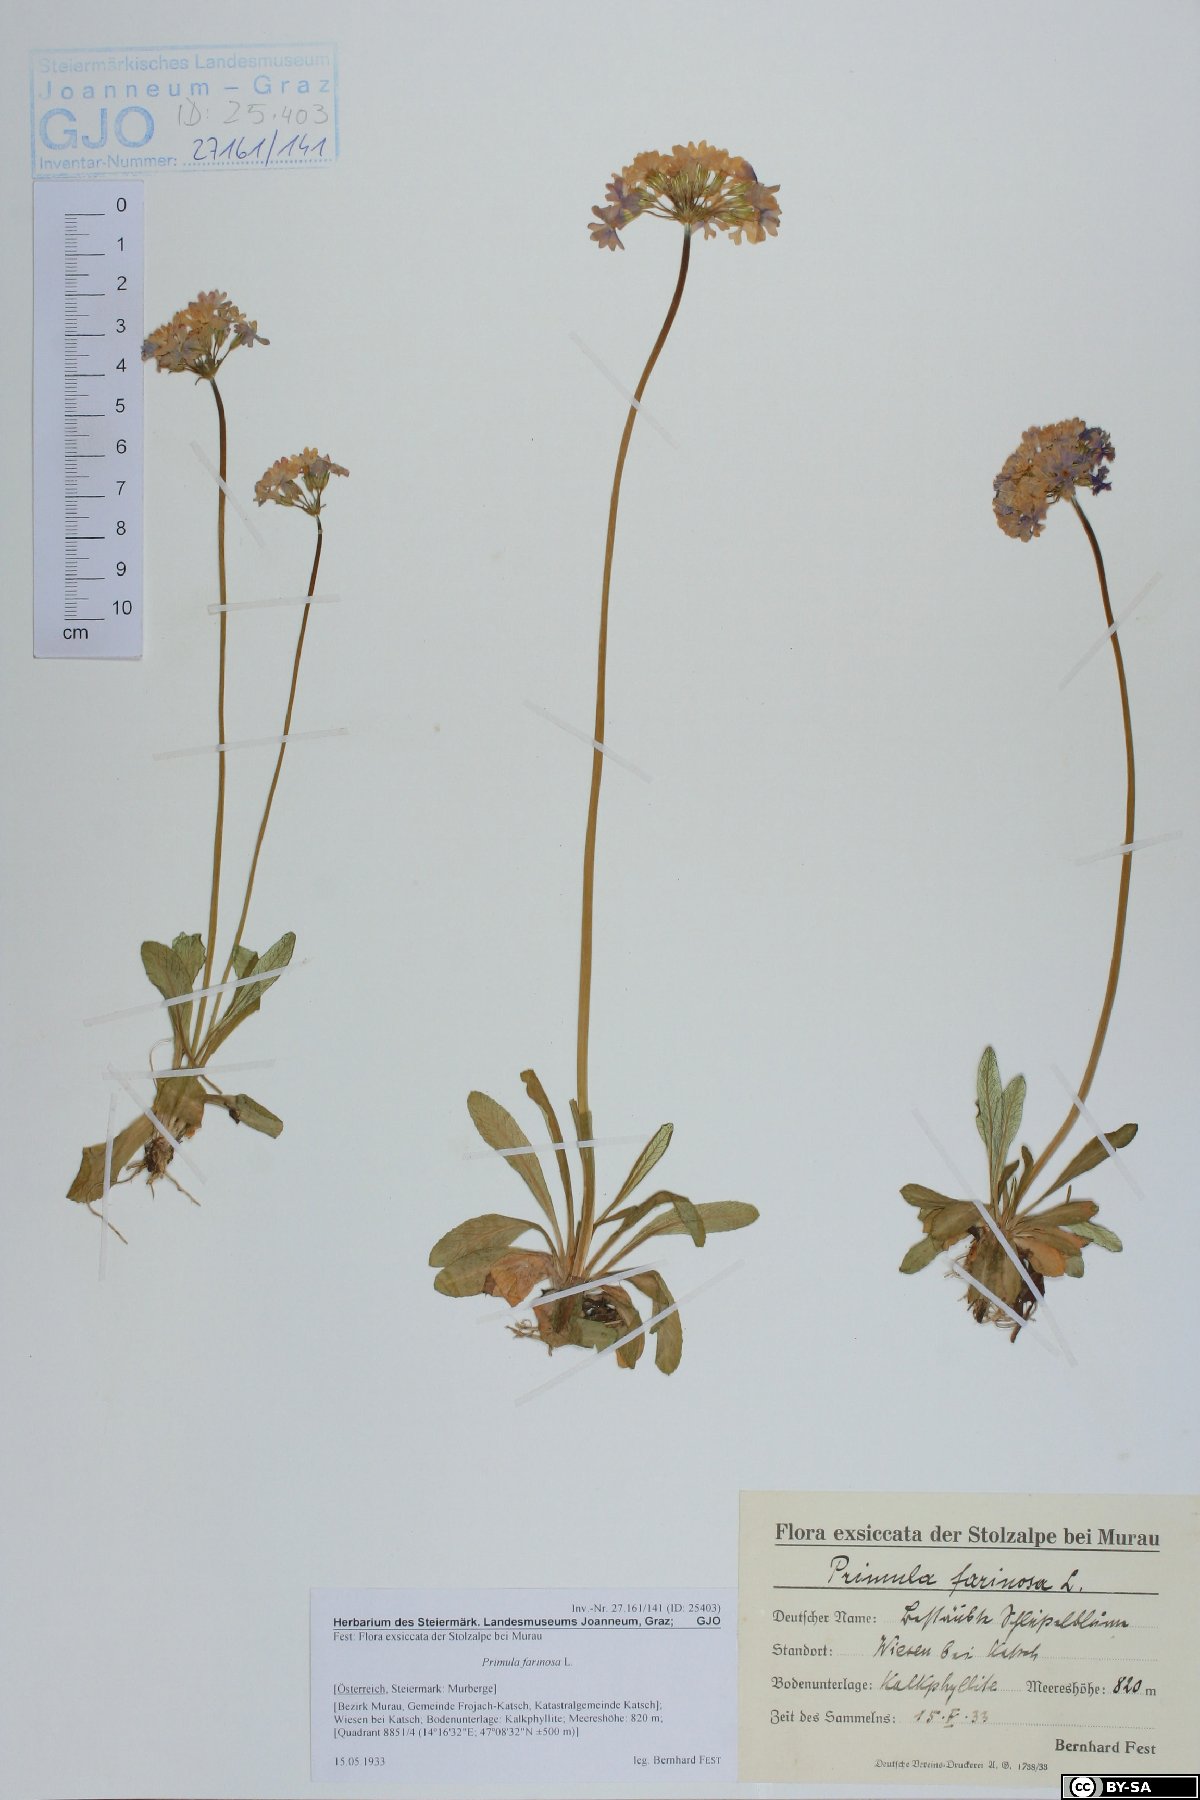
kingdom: Plantae
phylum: Tracheophyta
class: Magnoliopsida
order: Ericales
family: Primulaceae
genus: Primula
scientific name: Primula farinosa
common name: Bird's-eye primrose
